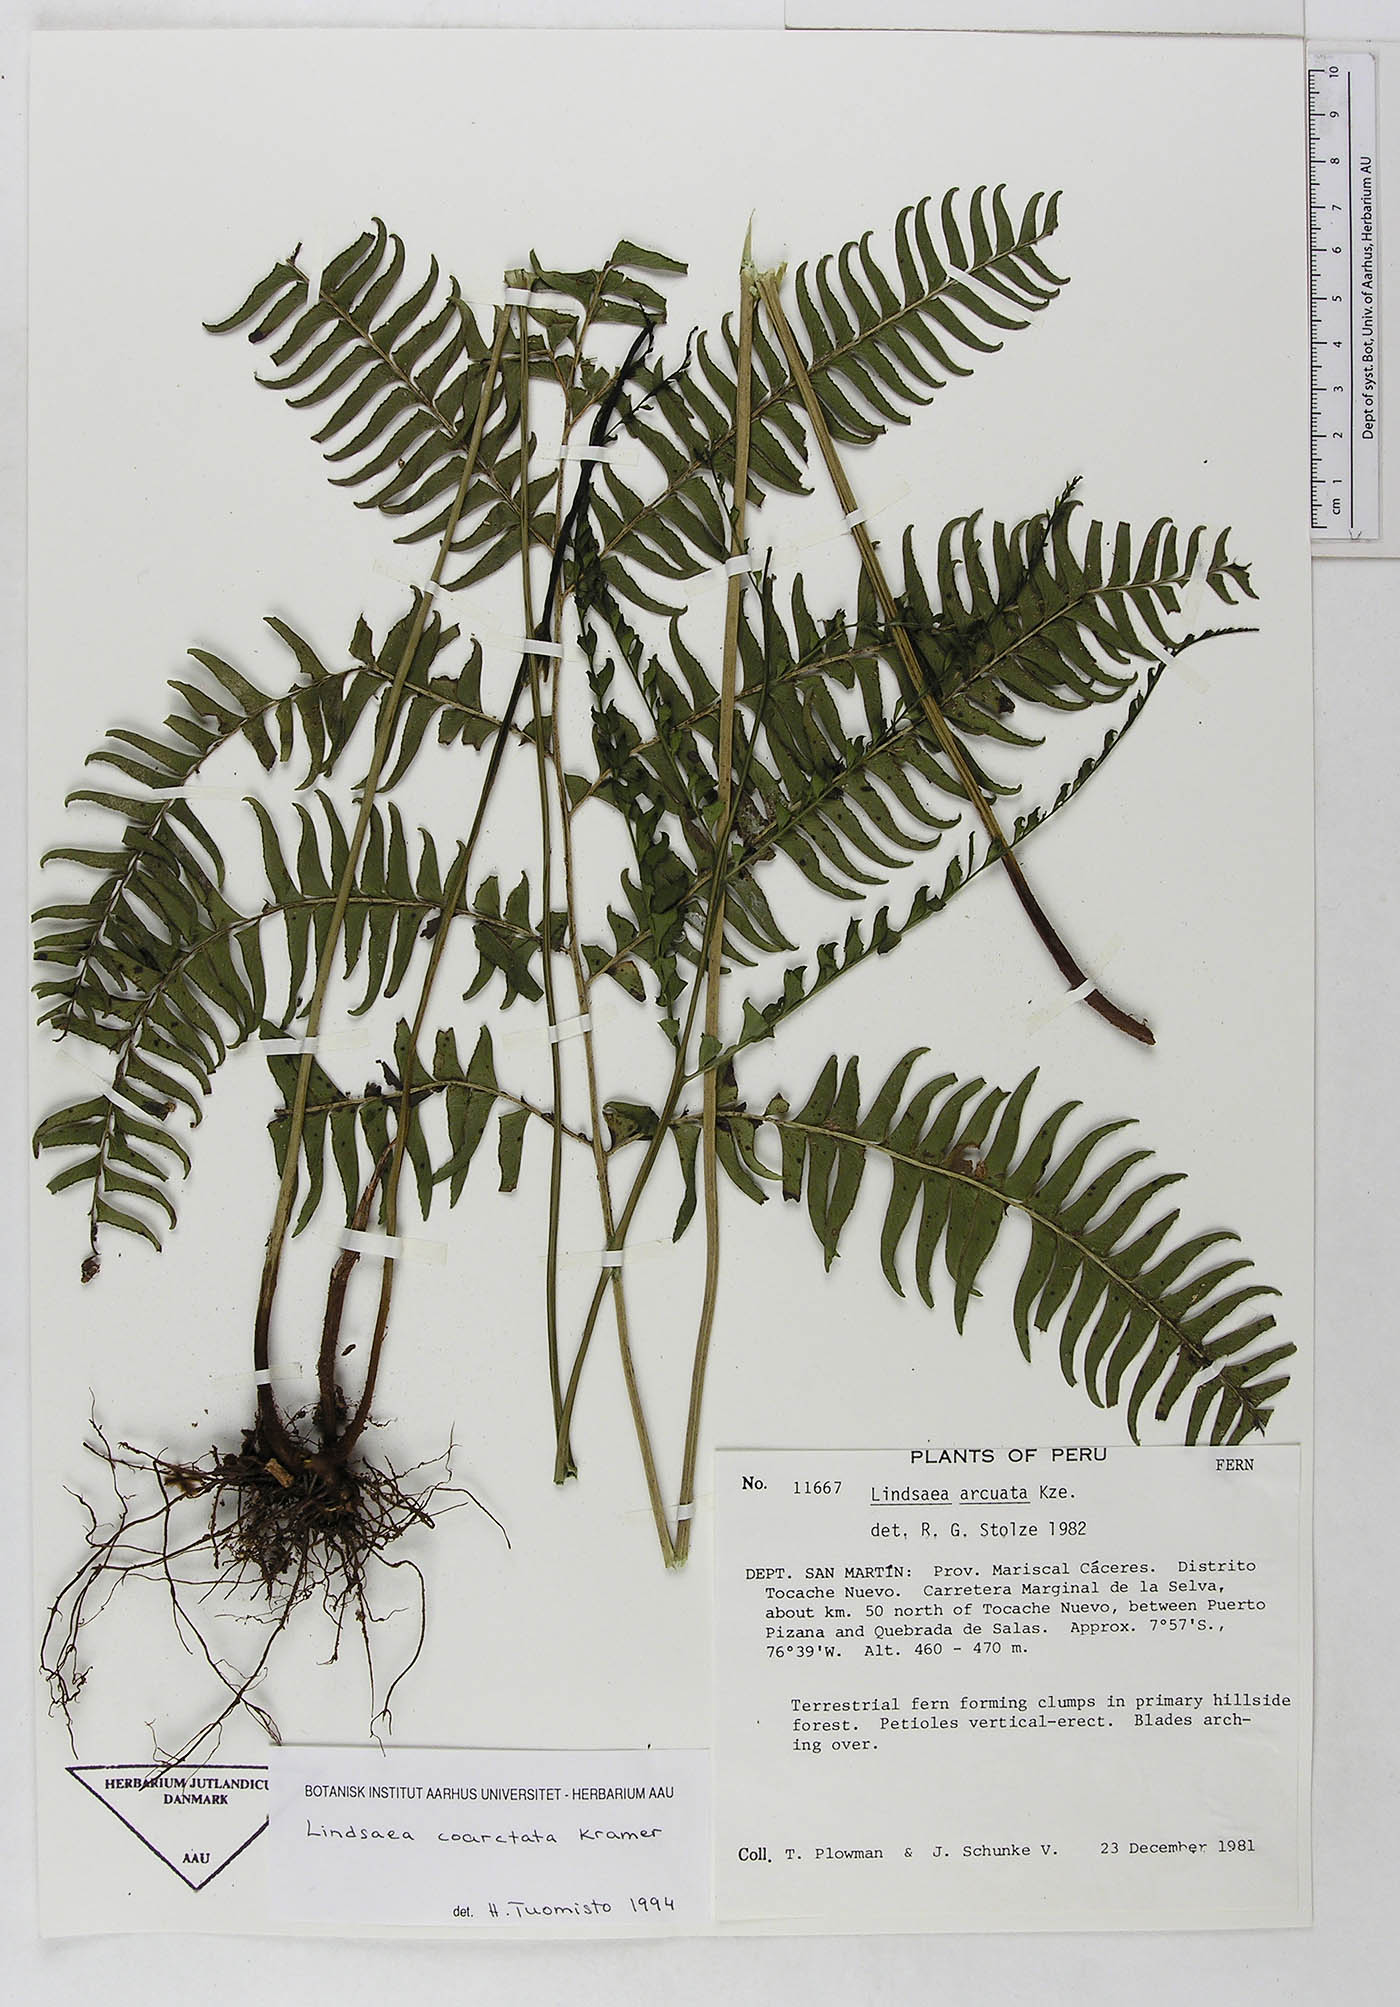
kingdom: Plantae
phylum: Tracheophyta
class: Polypodiopsida
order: Polypodiales
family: Lindsaeaceae
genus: Lindsaea
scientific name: Lindsaea coarctata
